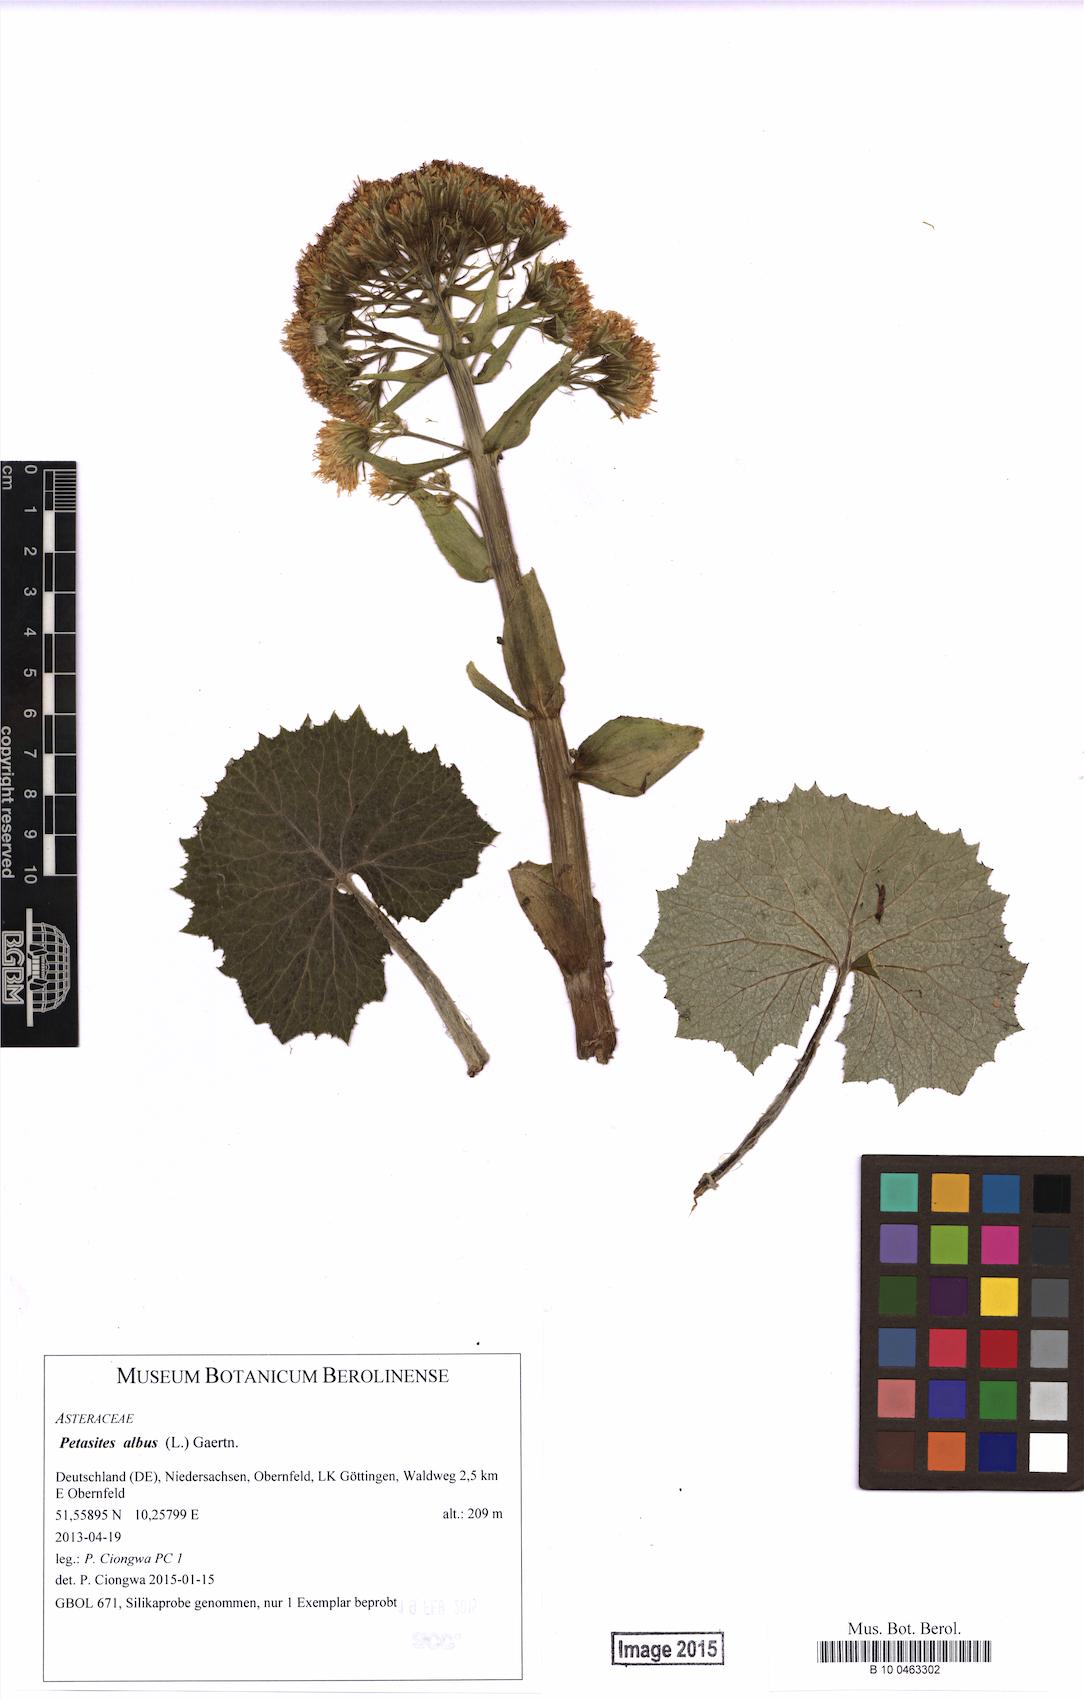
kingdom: Plantae
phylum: Tracheophyta
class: Magnoliopsida
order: Asterales
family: Asteraceae
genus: Petasites
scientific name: Petasites albus
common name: White butterbur
